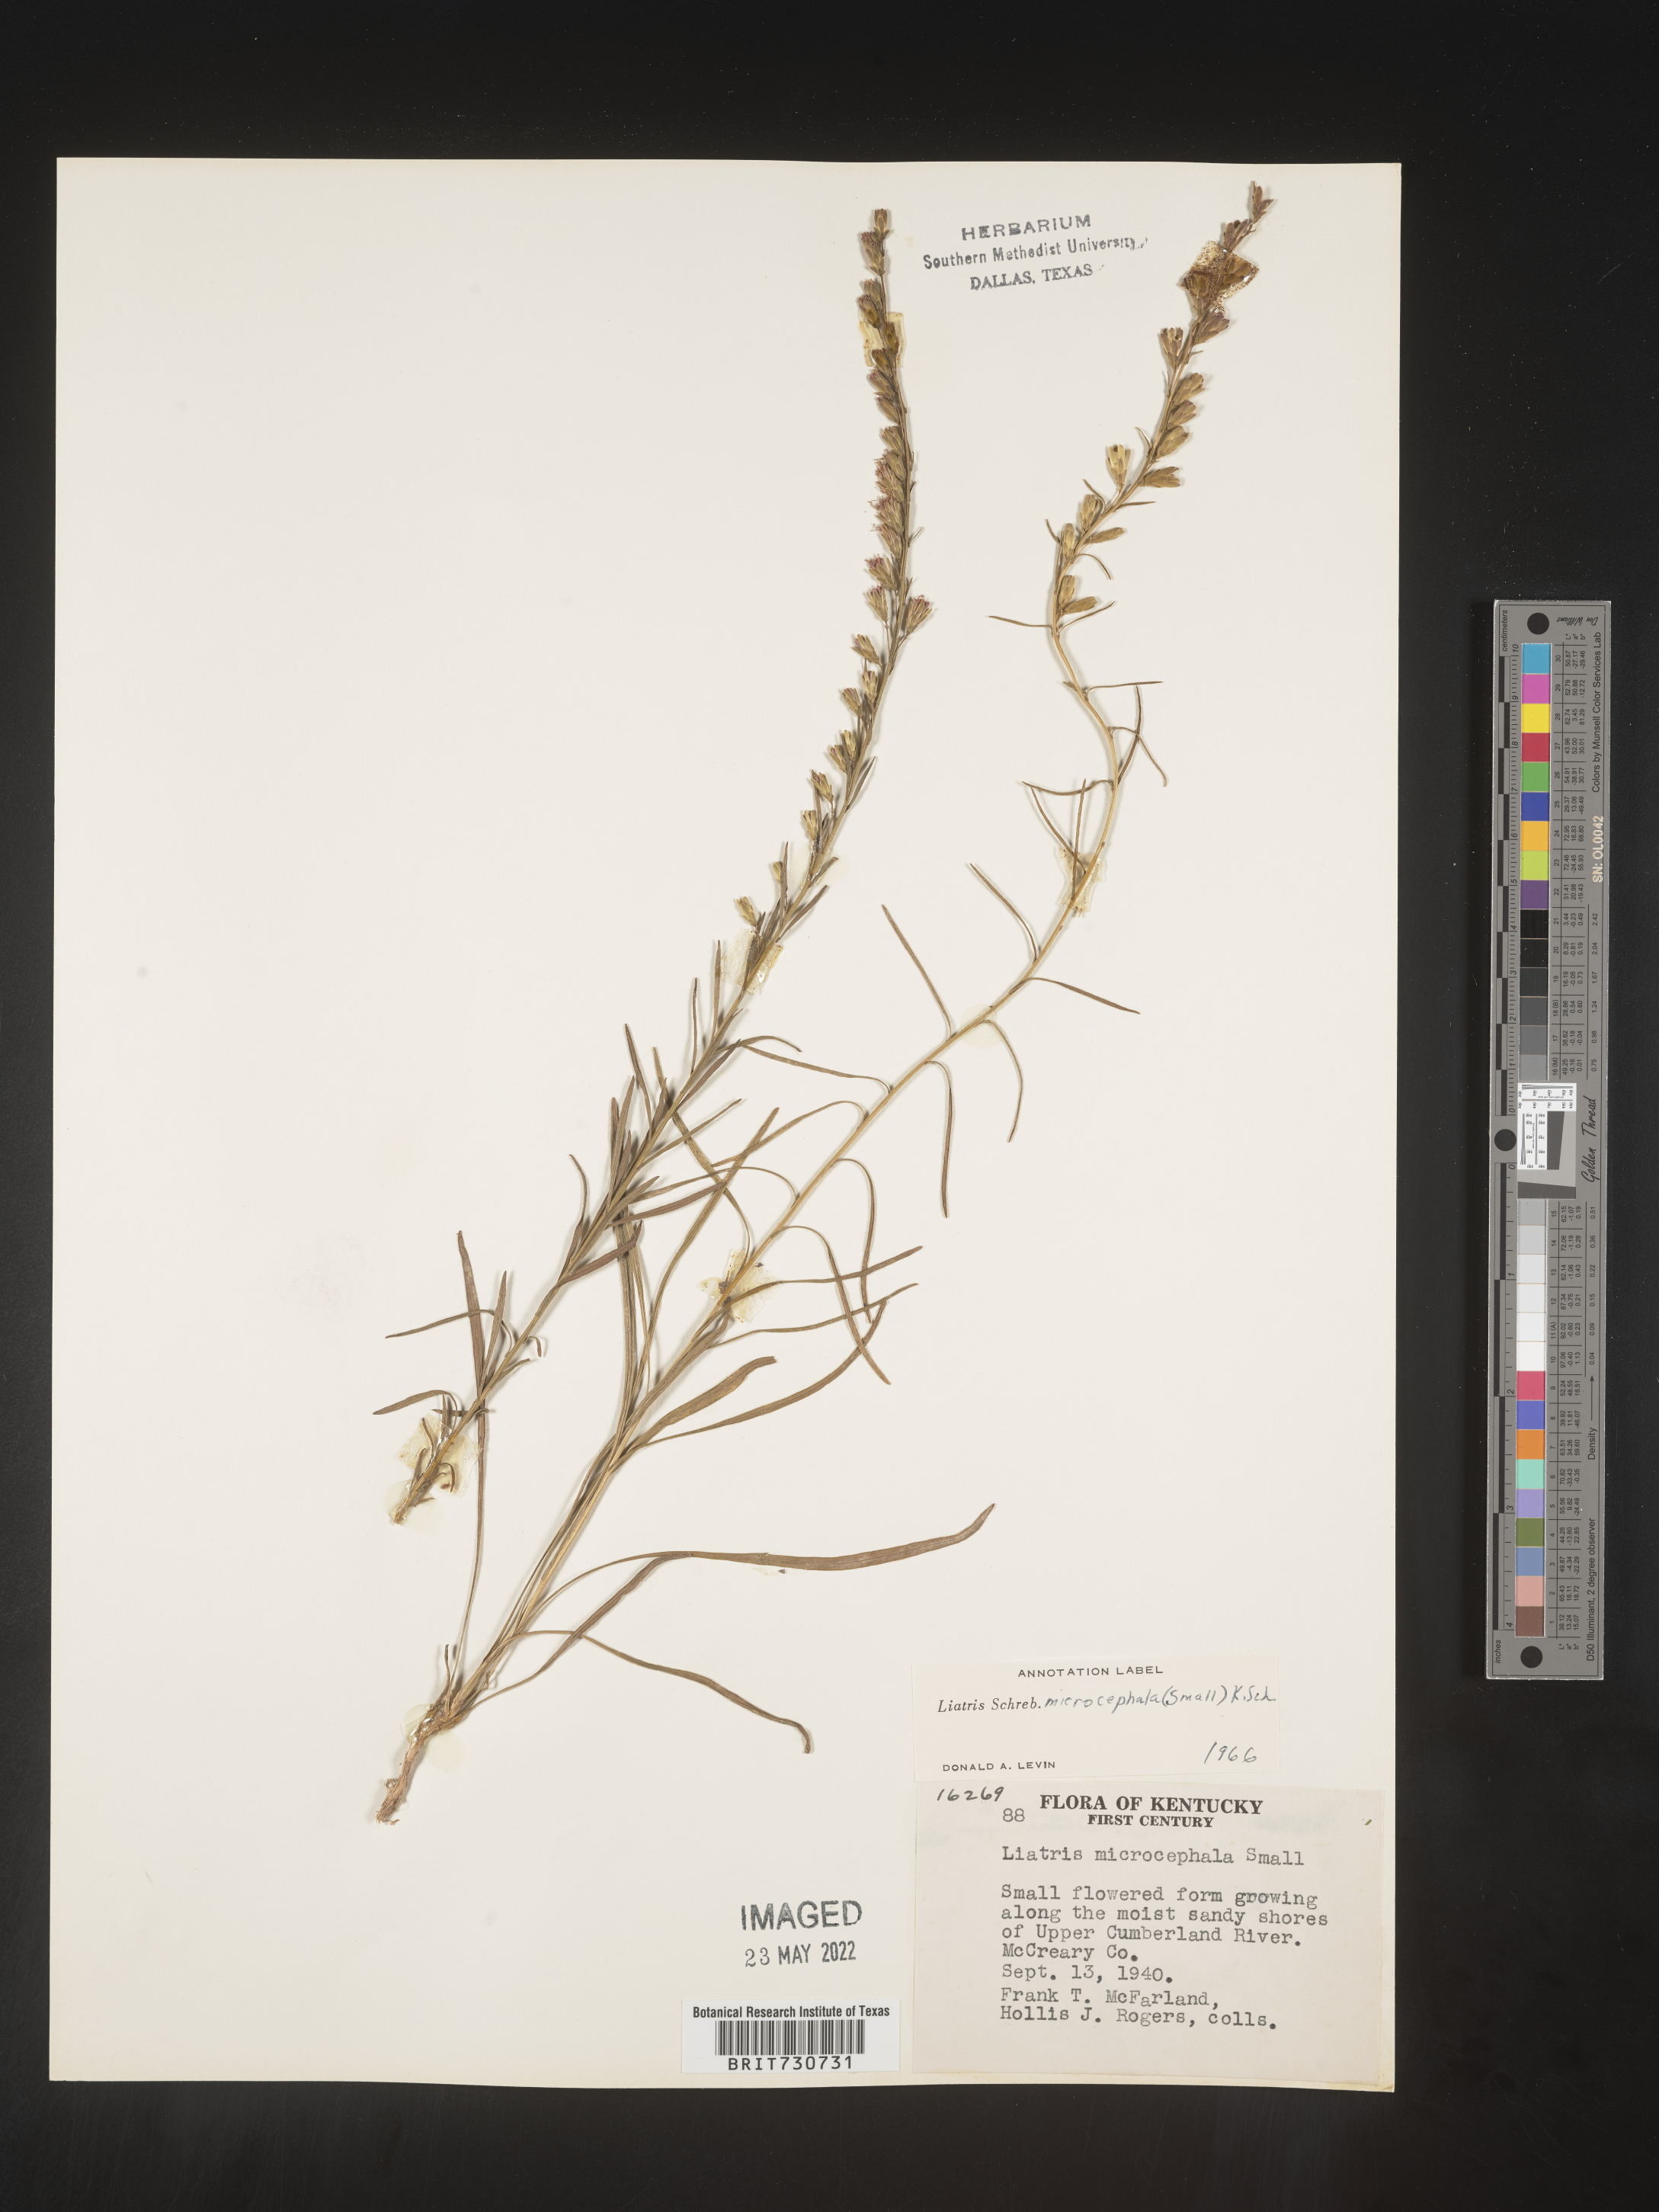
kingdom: Plantae
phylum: Tracheophyta
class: Magnoliopsida
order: Asterales
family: Asteraceae
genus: Liatris
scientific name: Liatris microcephala
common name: Small-head gayfeather
